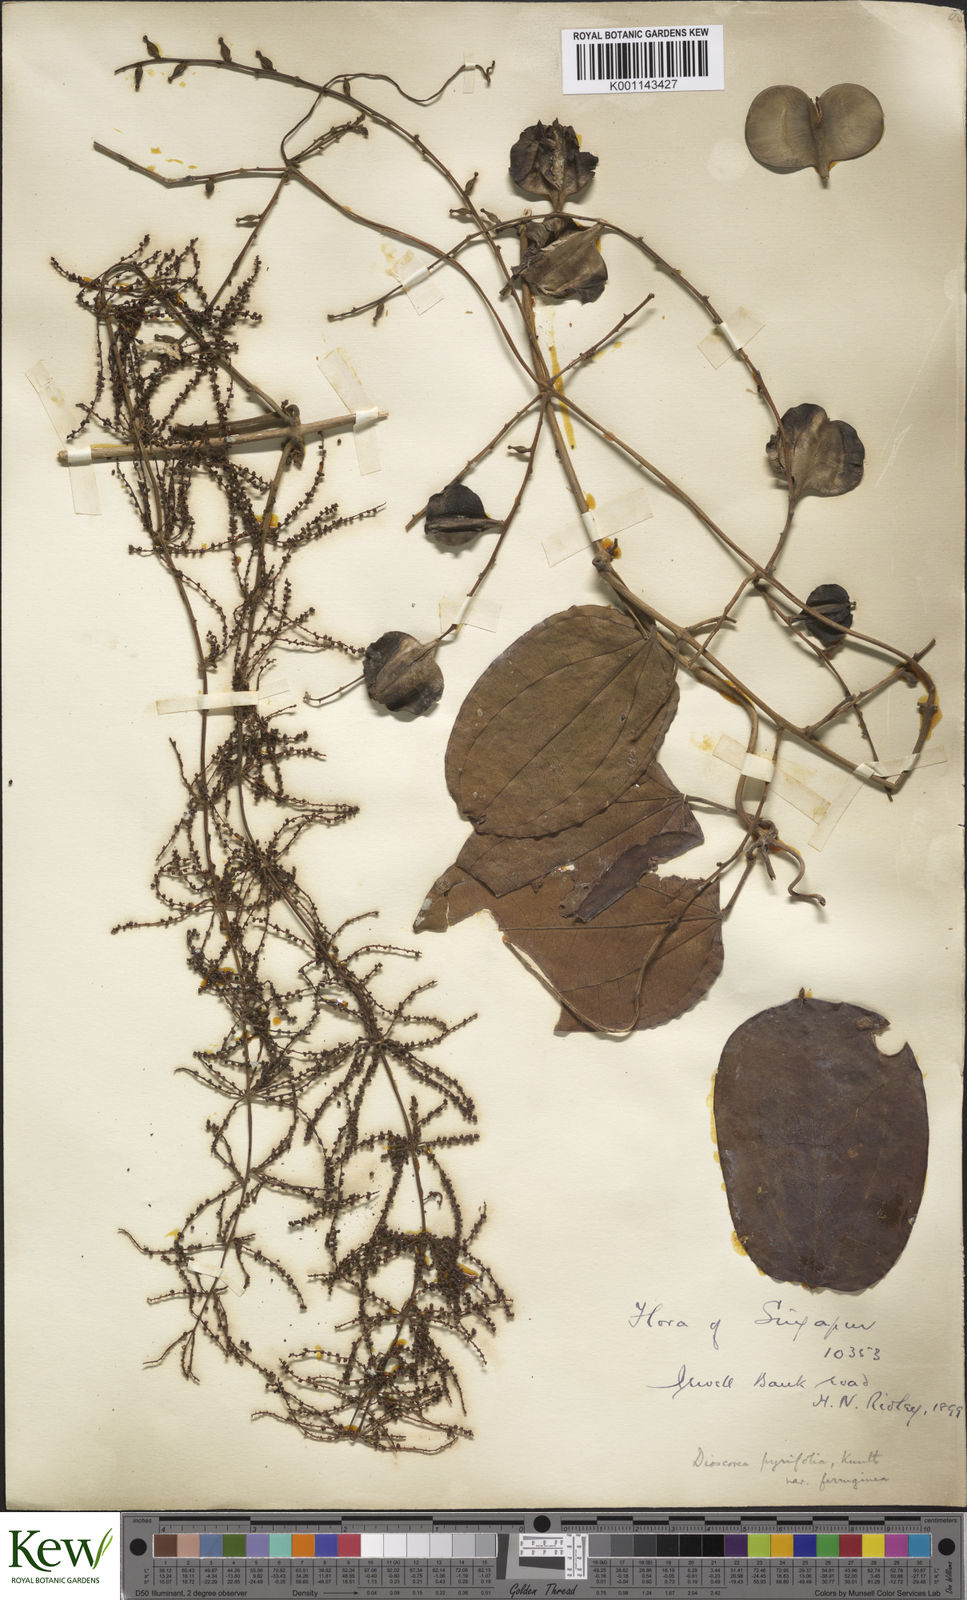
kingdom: Plantae
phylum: Tracheophyta
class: Liliopsida
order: Dioscoreales
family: Dioscoreaceae
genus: Dioscorea
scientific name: Dioscorea pyrifolia
